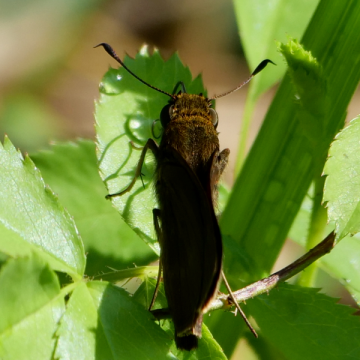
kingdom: Animalia
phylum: Arthropoda
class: Insecta
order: Lepidoptera
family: Hesperiidae
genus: Euphyes
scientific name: Euphyes vestris
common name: Dun Skipper
